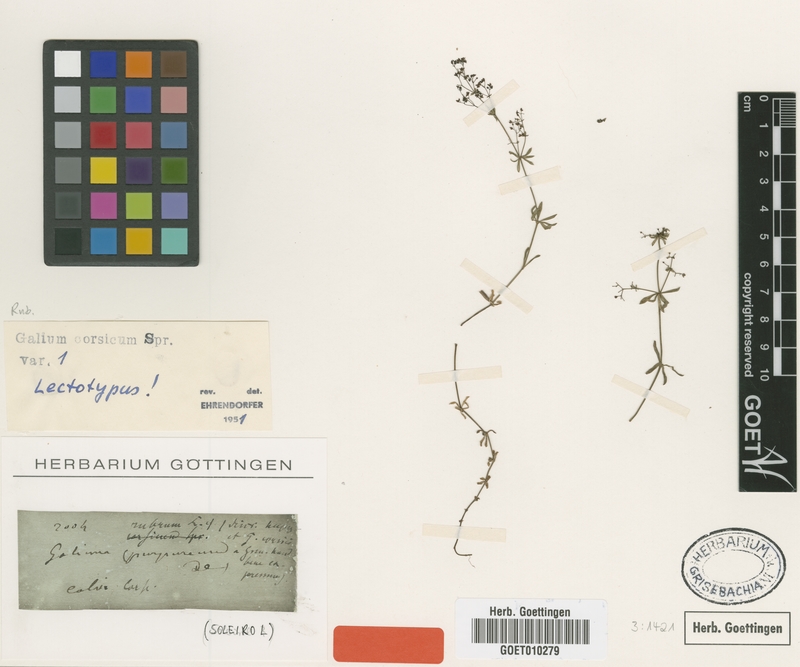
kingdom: Plantae
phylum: Tracheophyta
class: Magnoliopsida
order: Gentianales
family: Rubiaceae
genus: Galium
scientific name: Galium corsicum
